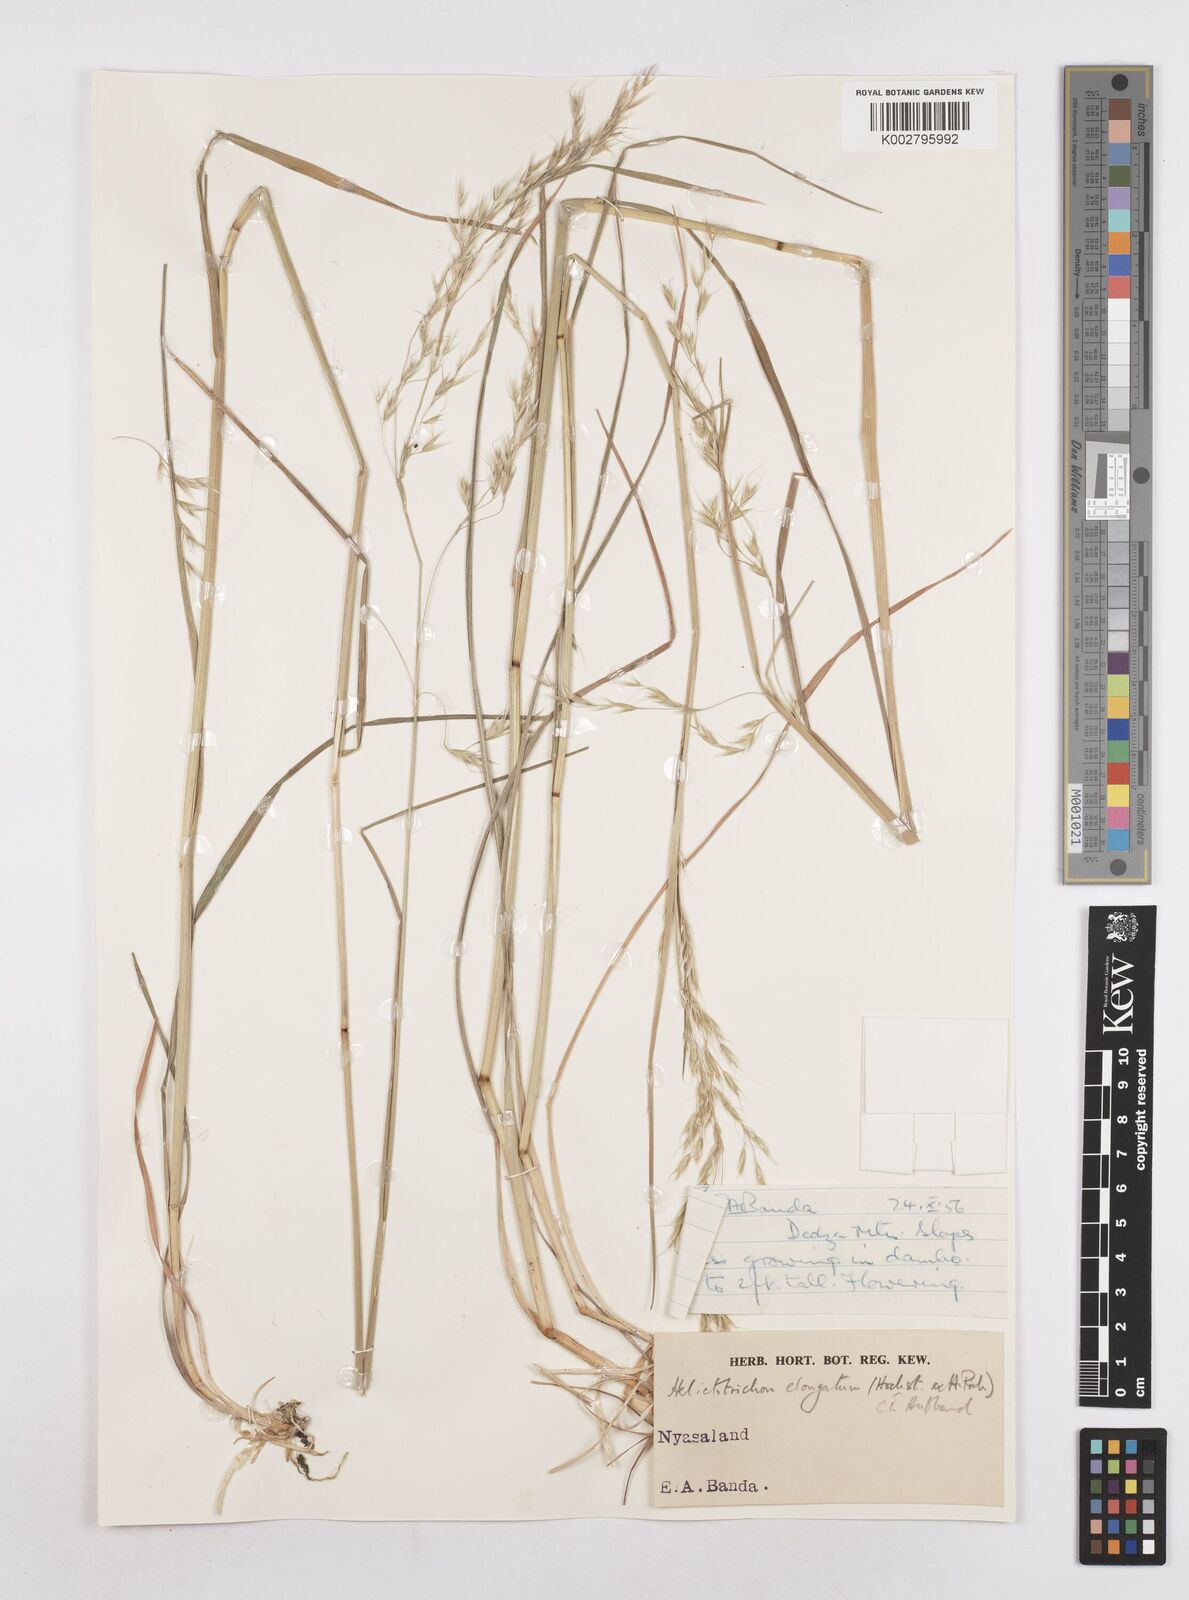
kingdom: Plantae
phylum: Tracheophyta
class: Liliopsida
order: Poales
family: Poaceae
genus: Trisetopsis
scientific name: Trisetopsis elongata
